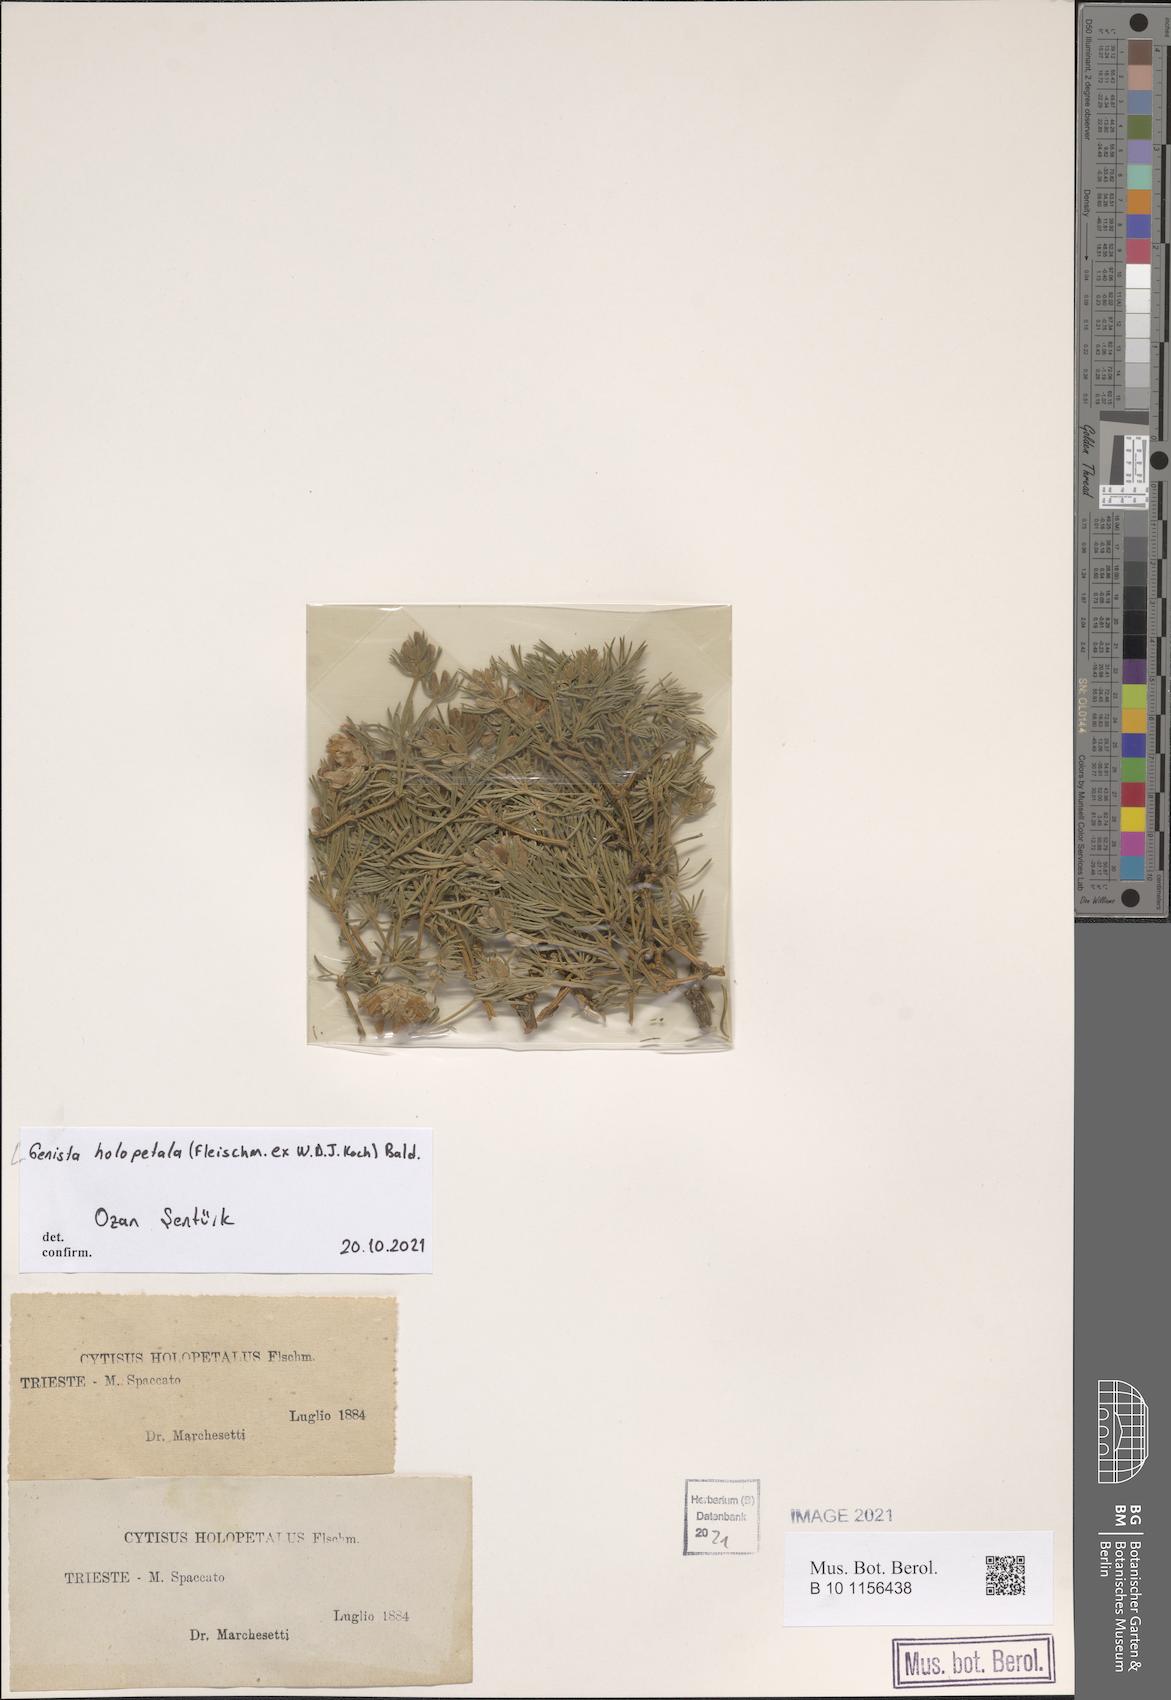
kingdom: Plantae
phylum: Tracheophyta
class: Magnoliopsida
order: Fabales
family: Fabaceae
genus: Genista
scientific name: Genista holopetala
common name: Entire-petalled gorse
